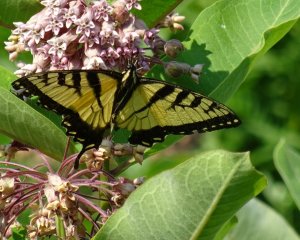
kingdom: Animalia
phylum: Arthropoda
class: Insecta
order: Lepidoptera
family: Papilionidae
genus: Pterourus
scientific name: Pterourus glaucus
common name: Eastern Tiger Swallowtail
